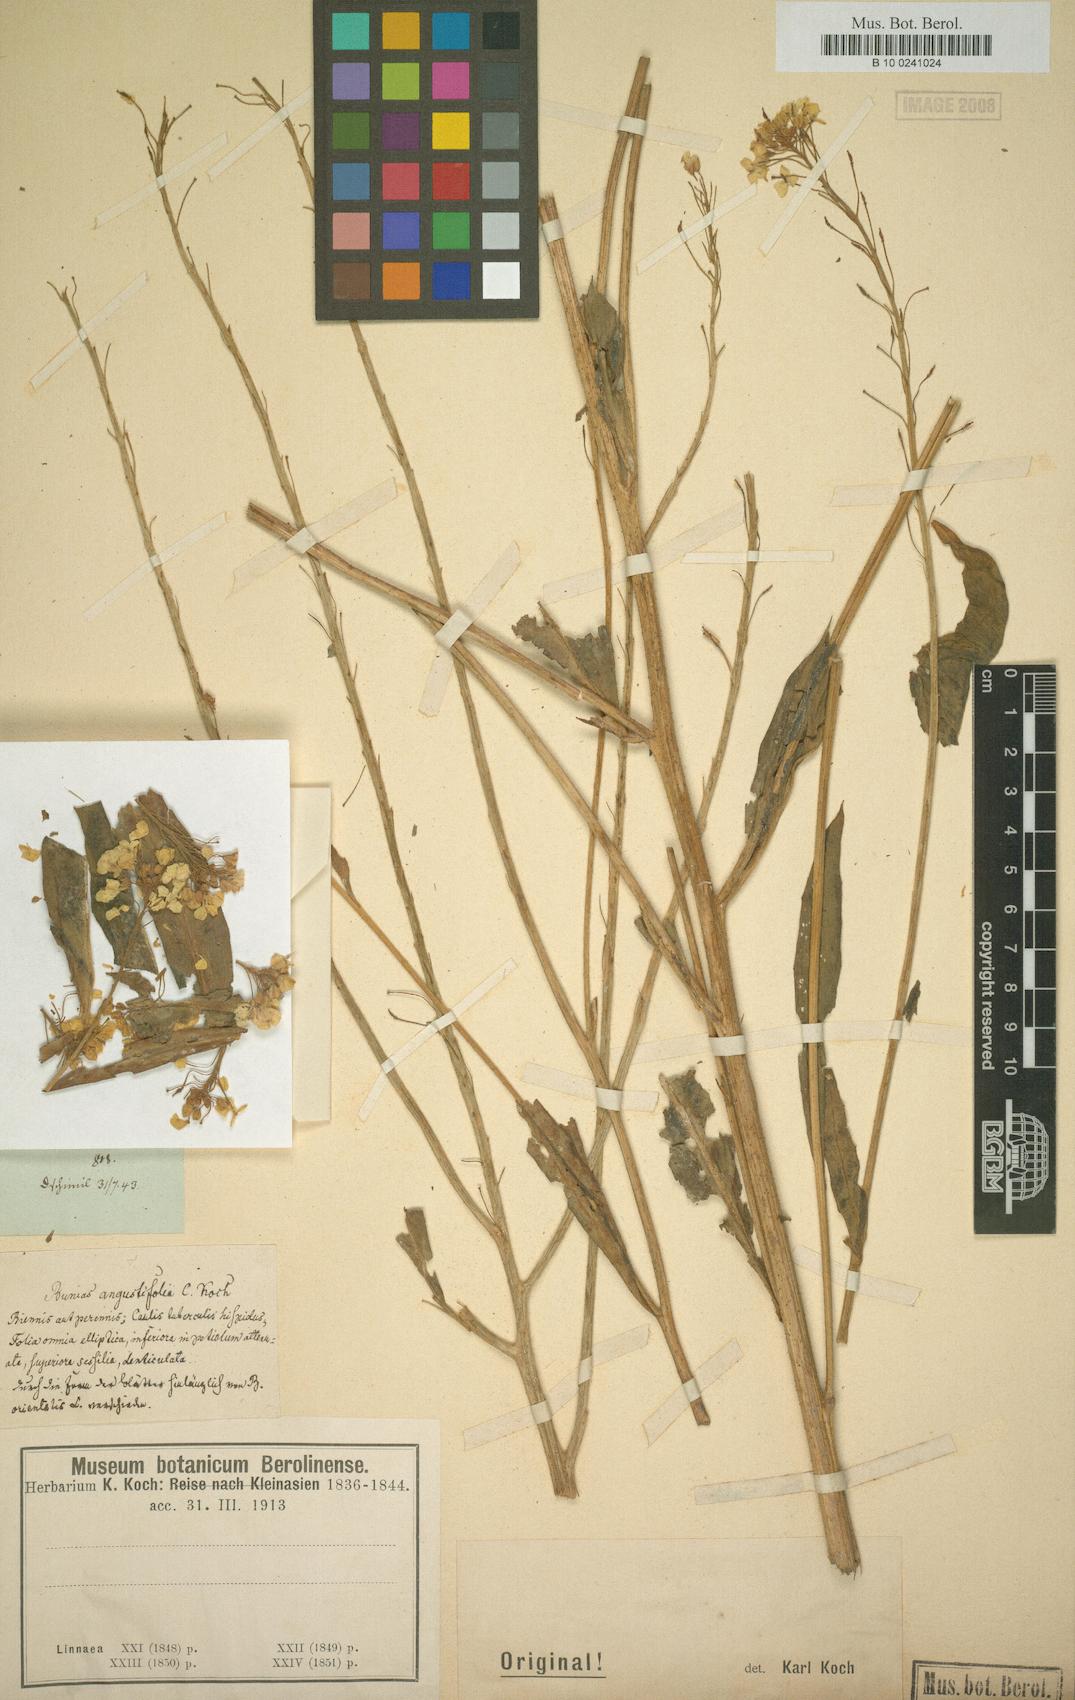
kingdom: Plantae
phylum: Tracheophyta
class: Magnoliopsida
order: Brassicales
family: Brassicaceae
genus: Bunias
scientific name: Bunias
